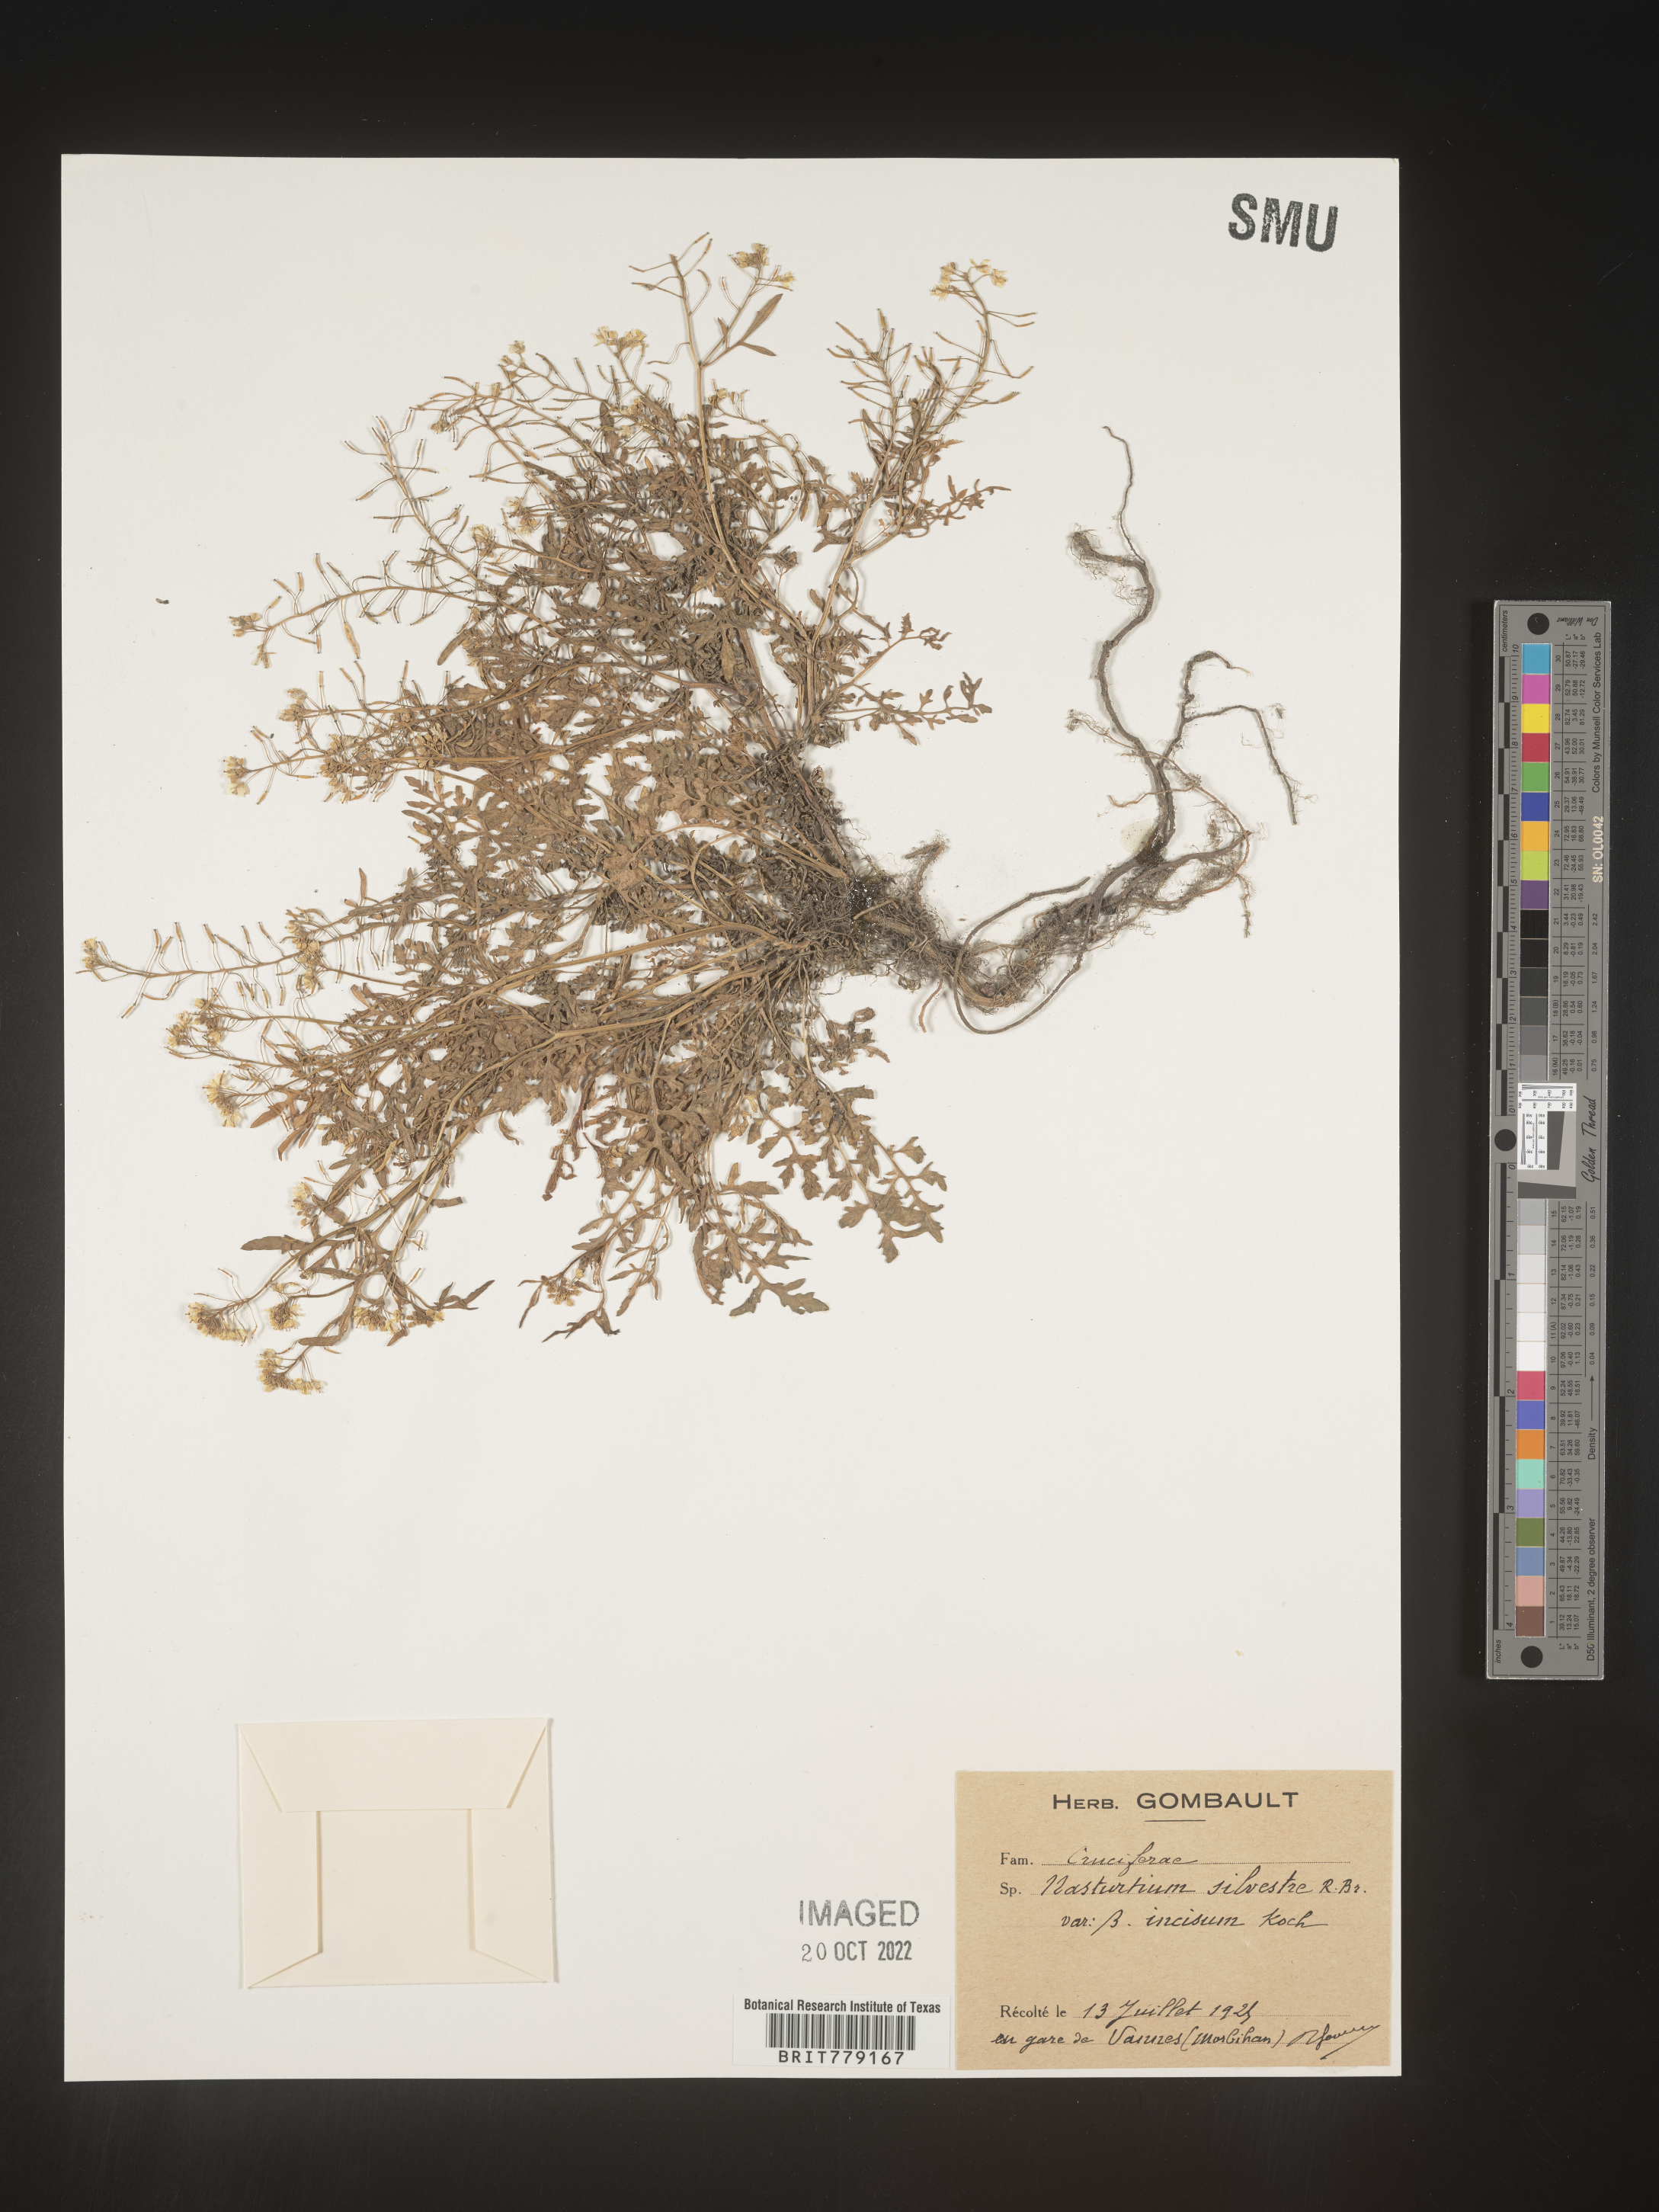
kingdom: Plantae
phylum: Tracheophyta
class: Magnoliopsida
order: Brassicales
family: Brassicaceae
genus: Rorippa
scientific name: Rorippa
